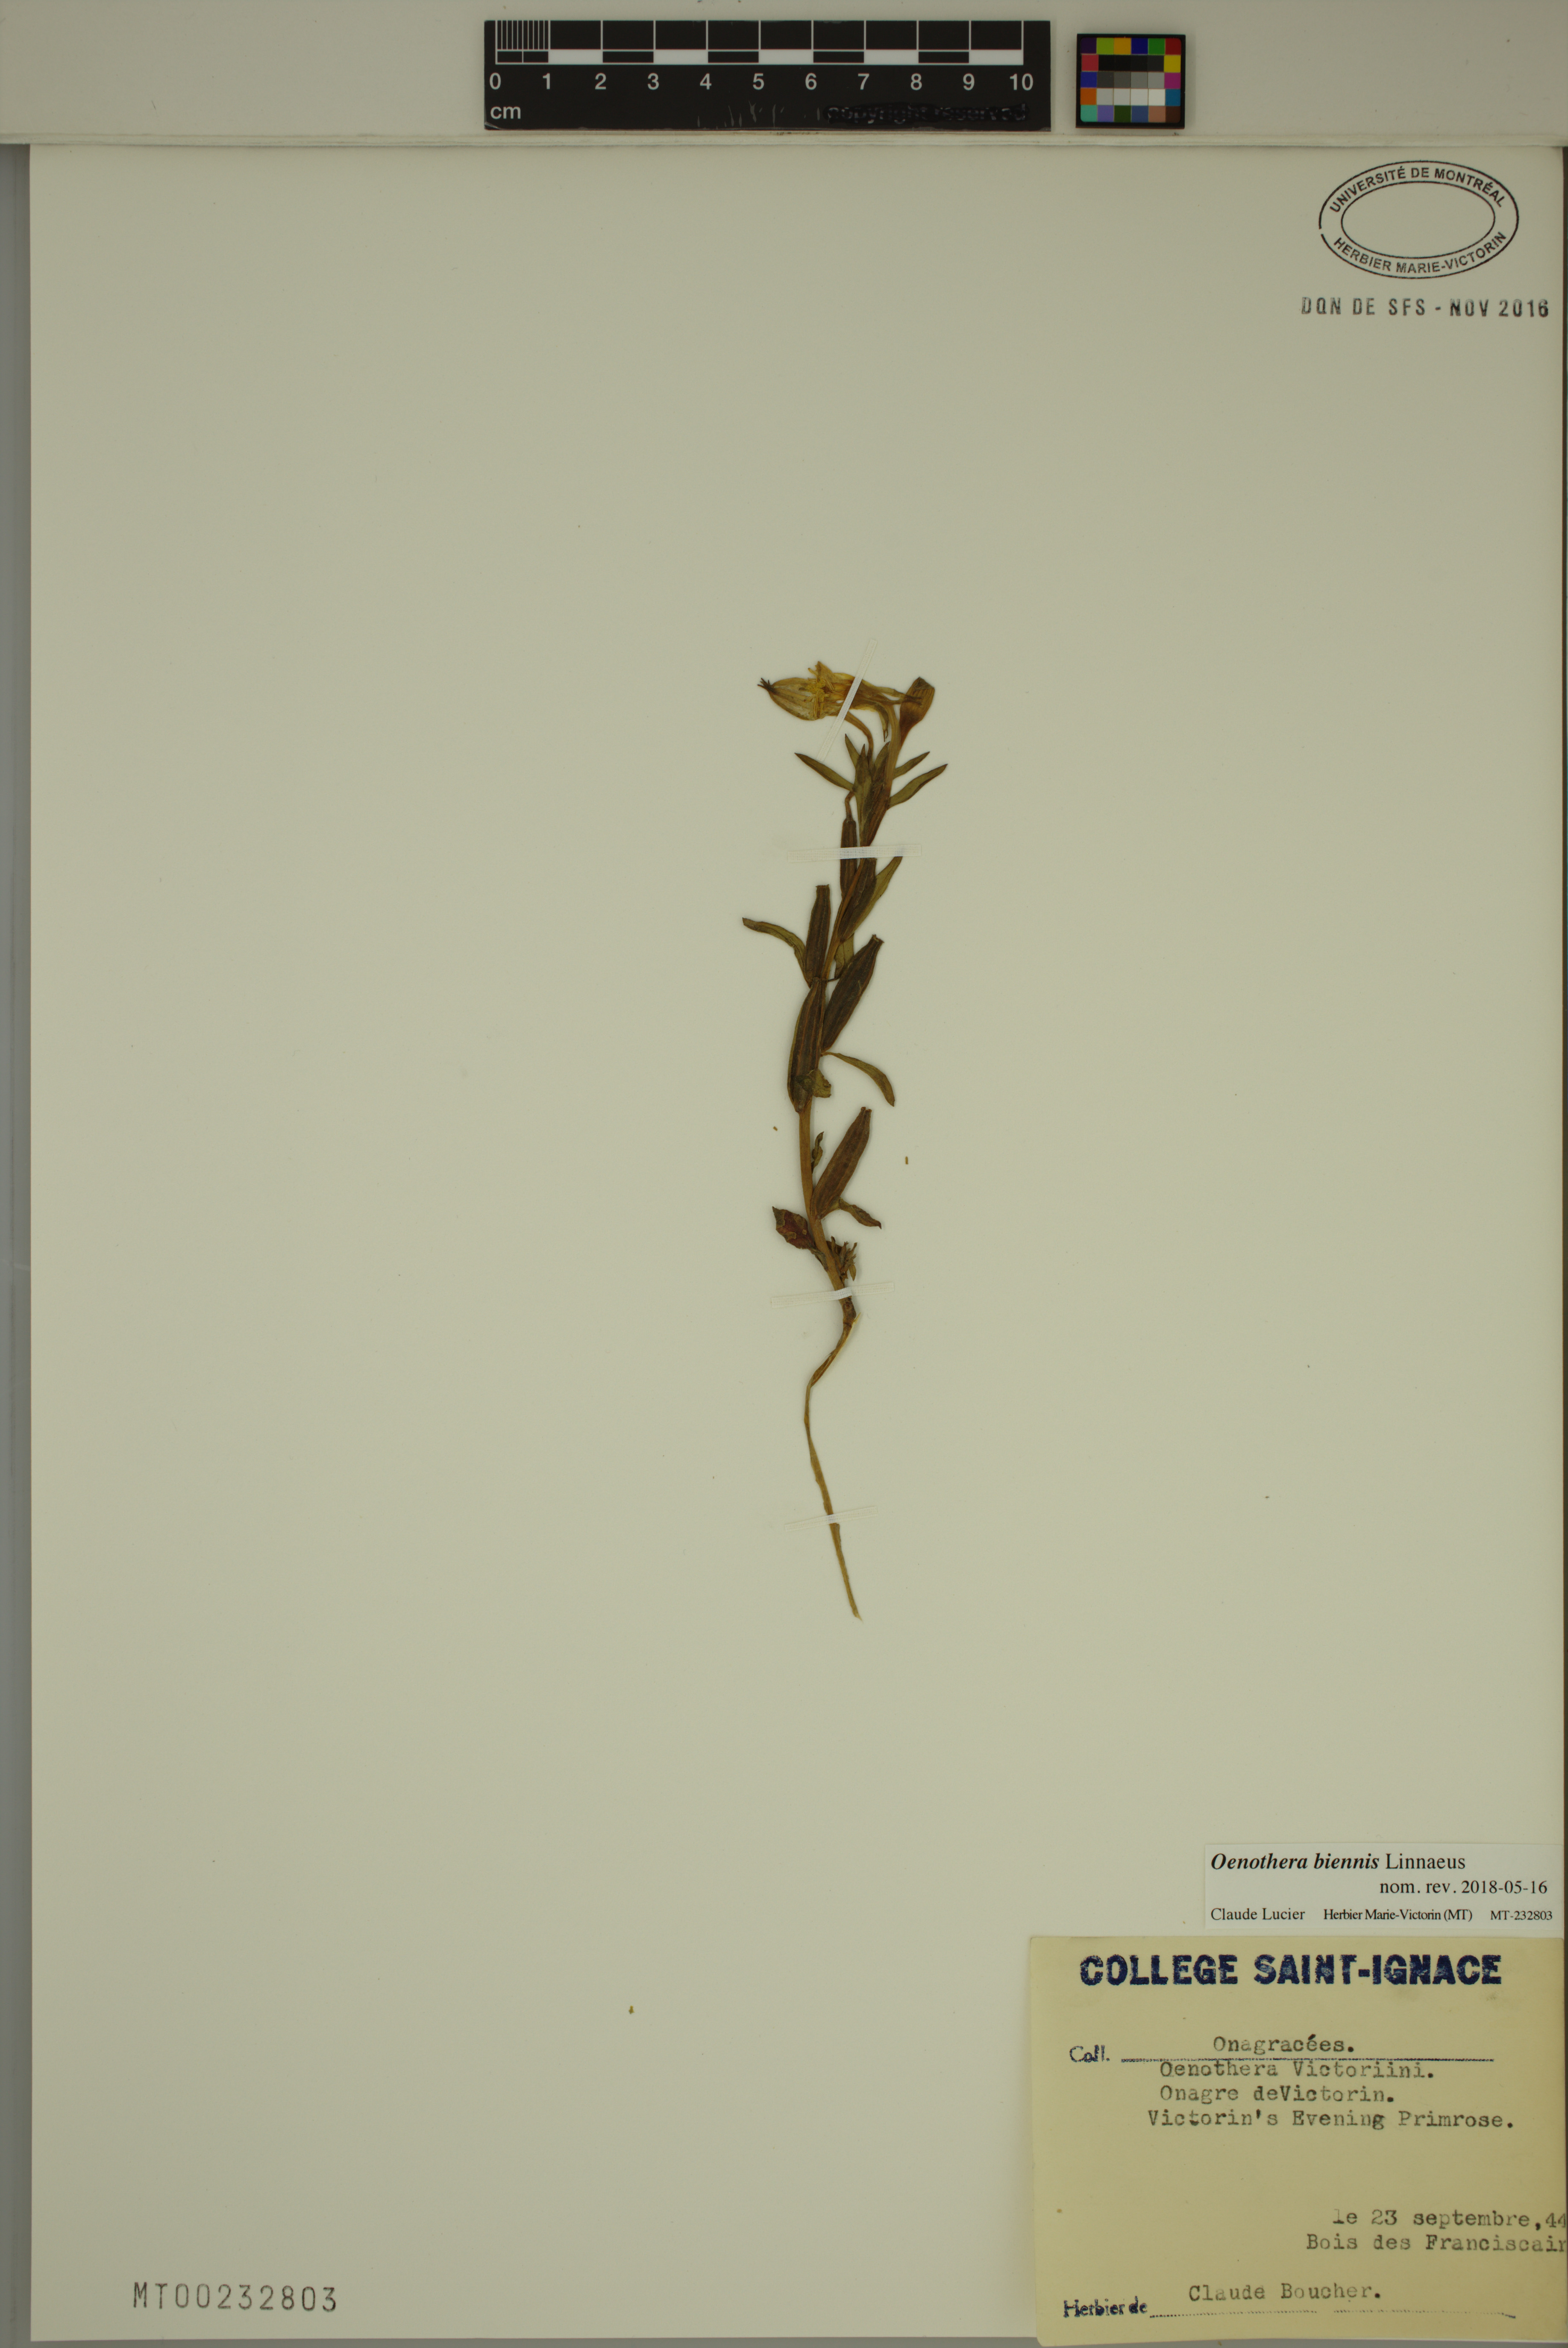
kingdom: Plantae
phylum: Tracheophyta
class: Magnoliopsida
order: Myrtales
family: Onagraceae
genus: Oenothera
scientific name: Oenothera biennis
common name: Common evening-primrose
